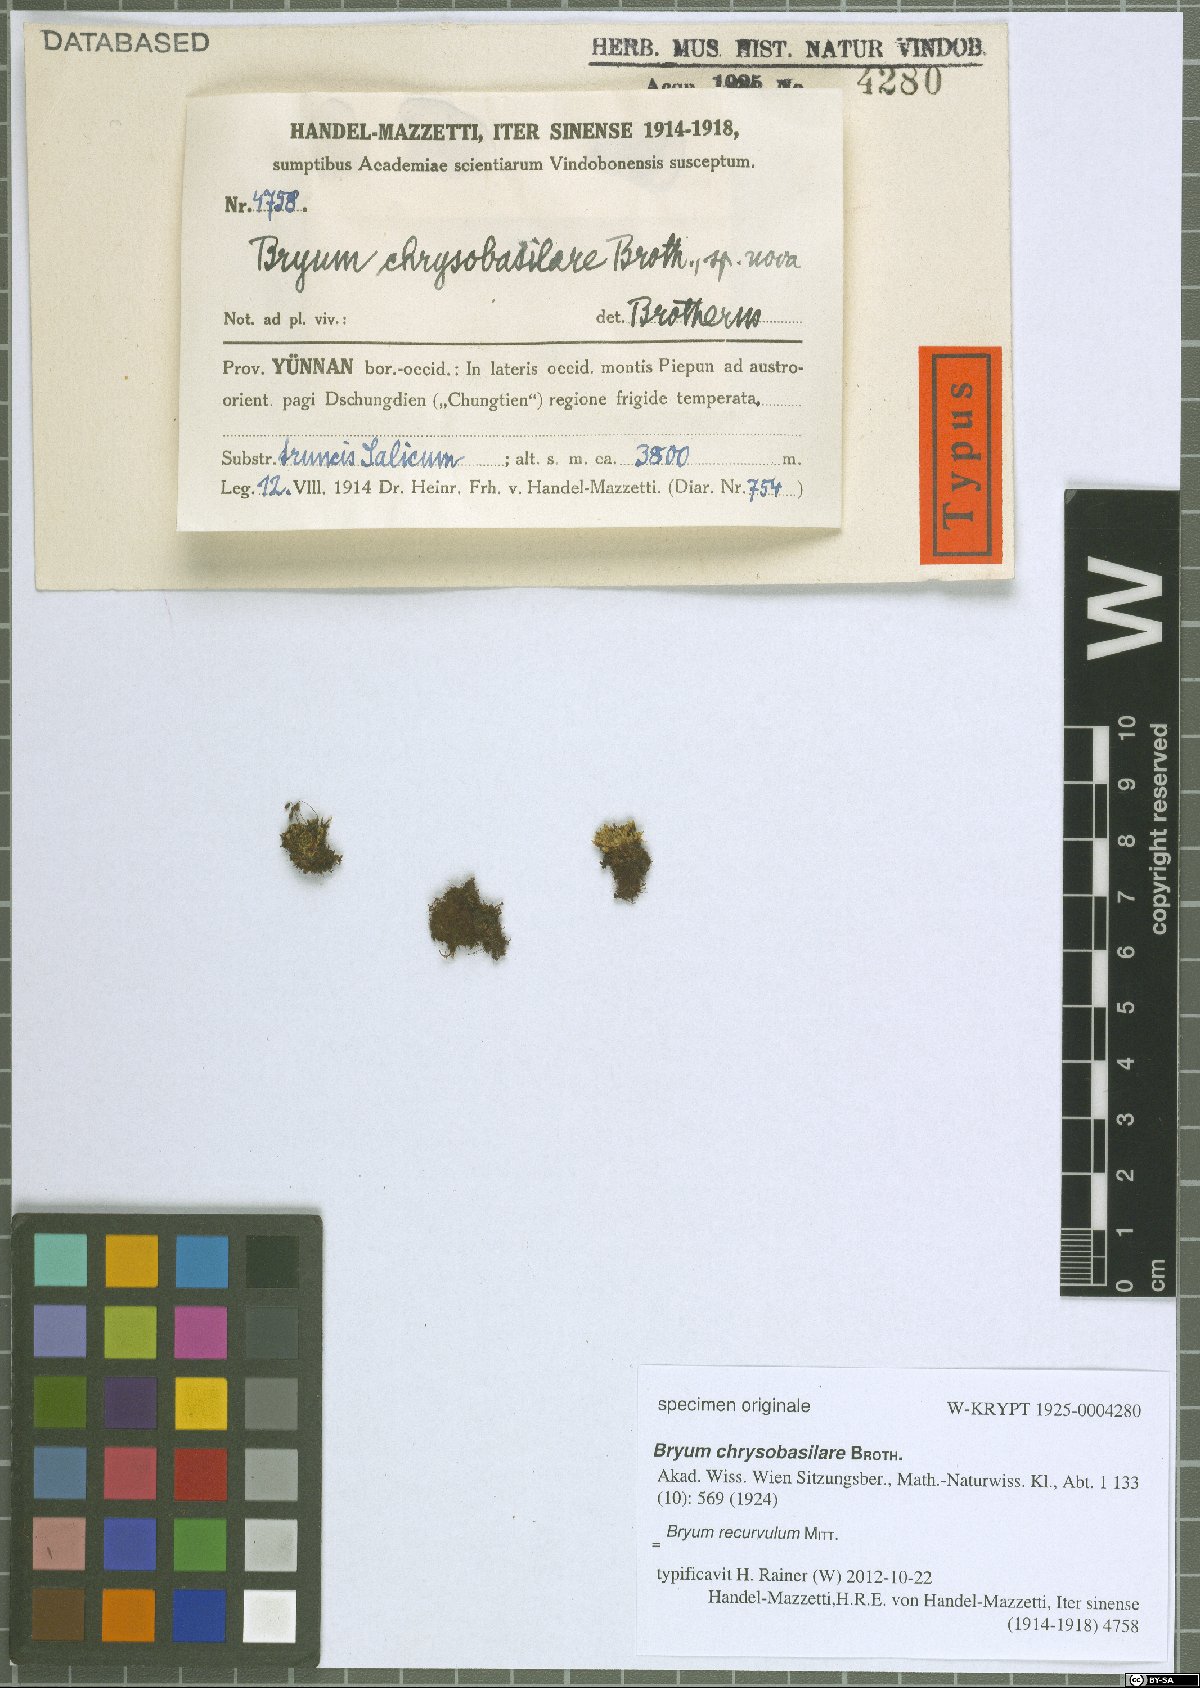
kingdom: Plantae
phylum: Bryophyta
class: Bryopsida
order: Bryales
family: Bryaceae
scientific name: Bryaceae
